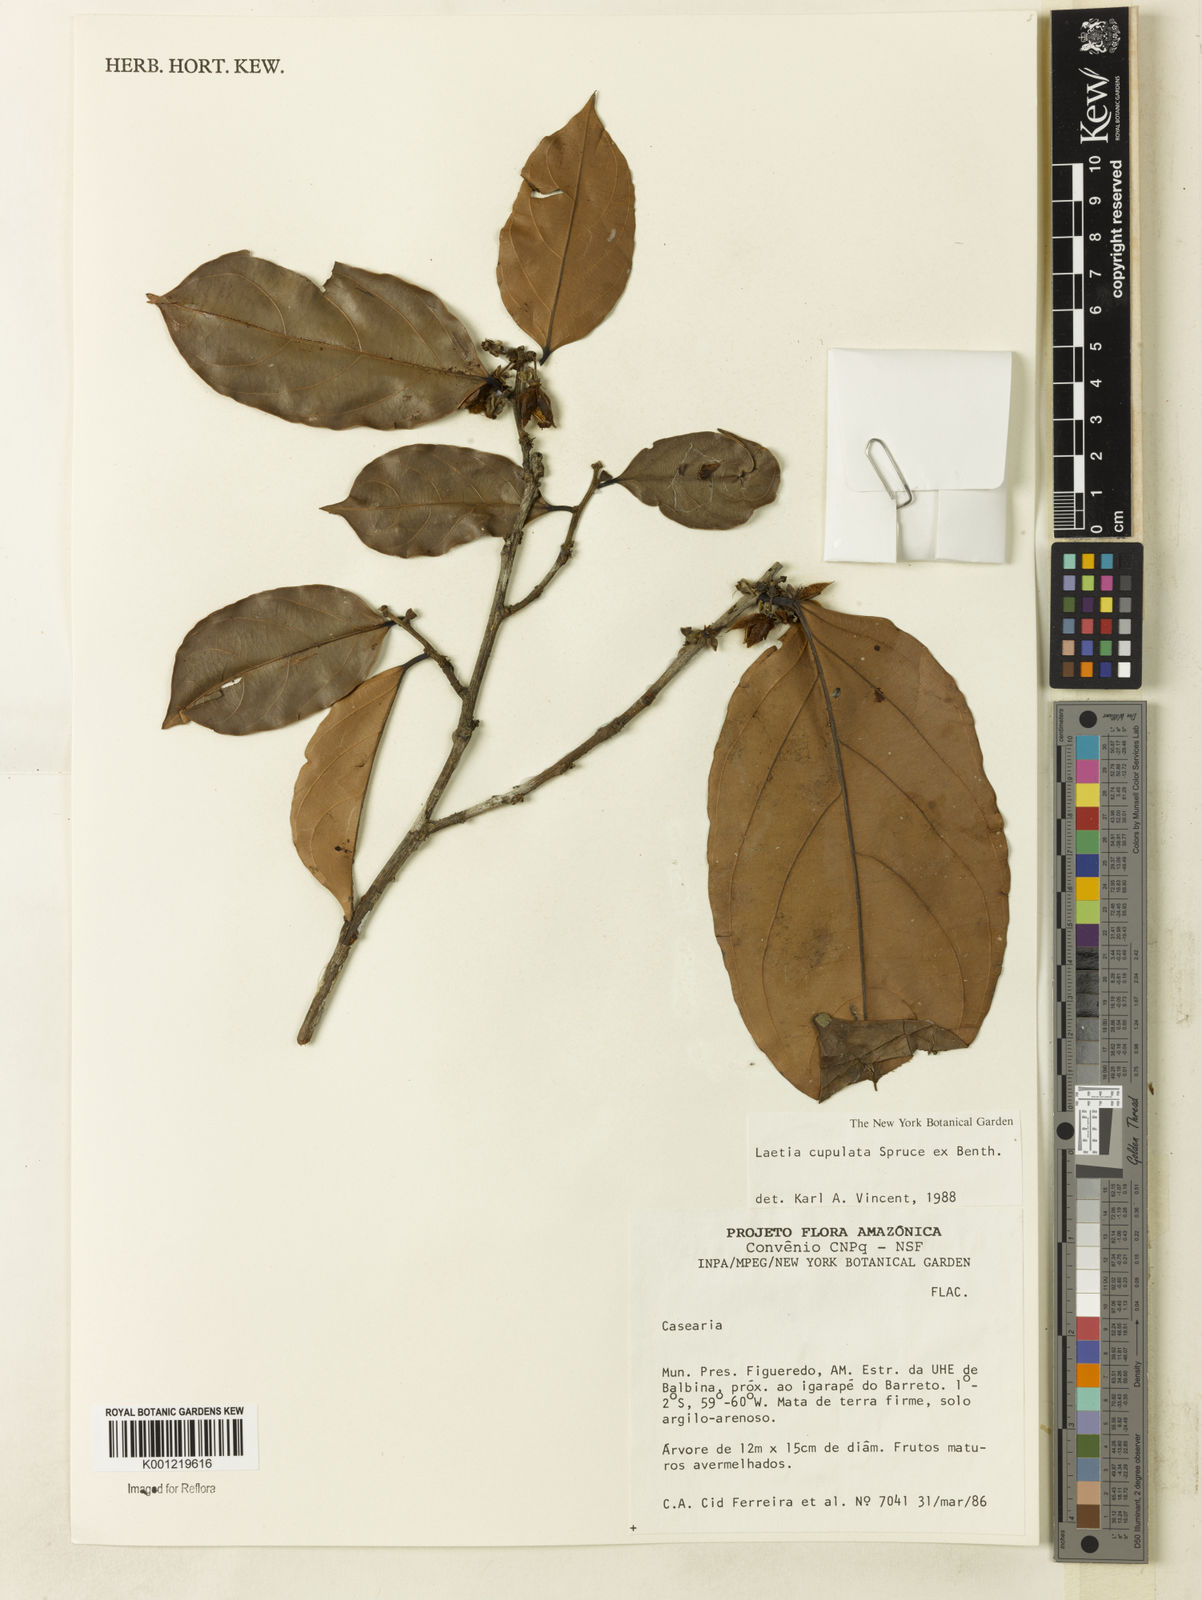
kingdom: Plantae
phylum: Tracheophyta
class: Magnoliopsida
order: Malpighiales
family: Salicaceae
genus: Irenodendron
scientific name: Irenodendron cupulatum
